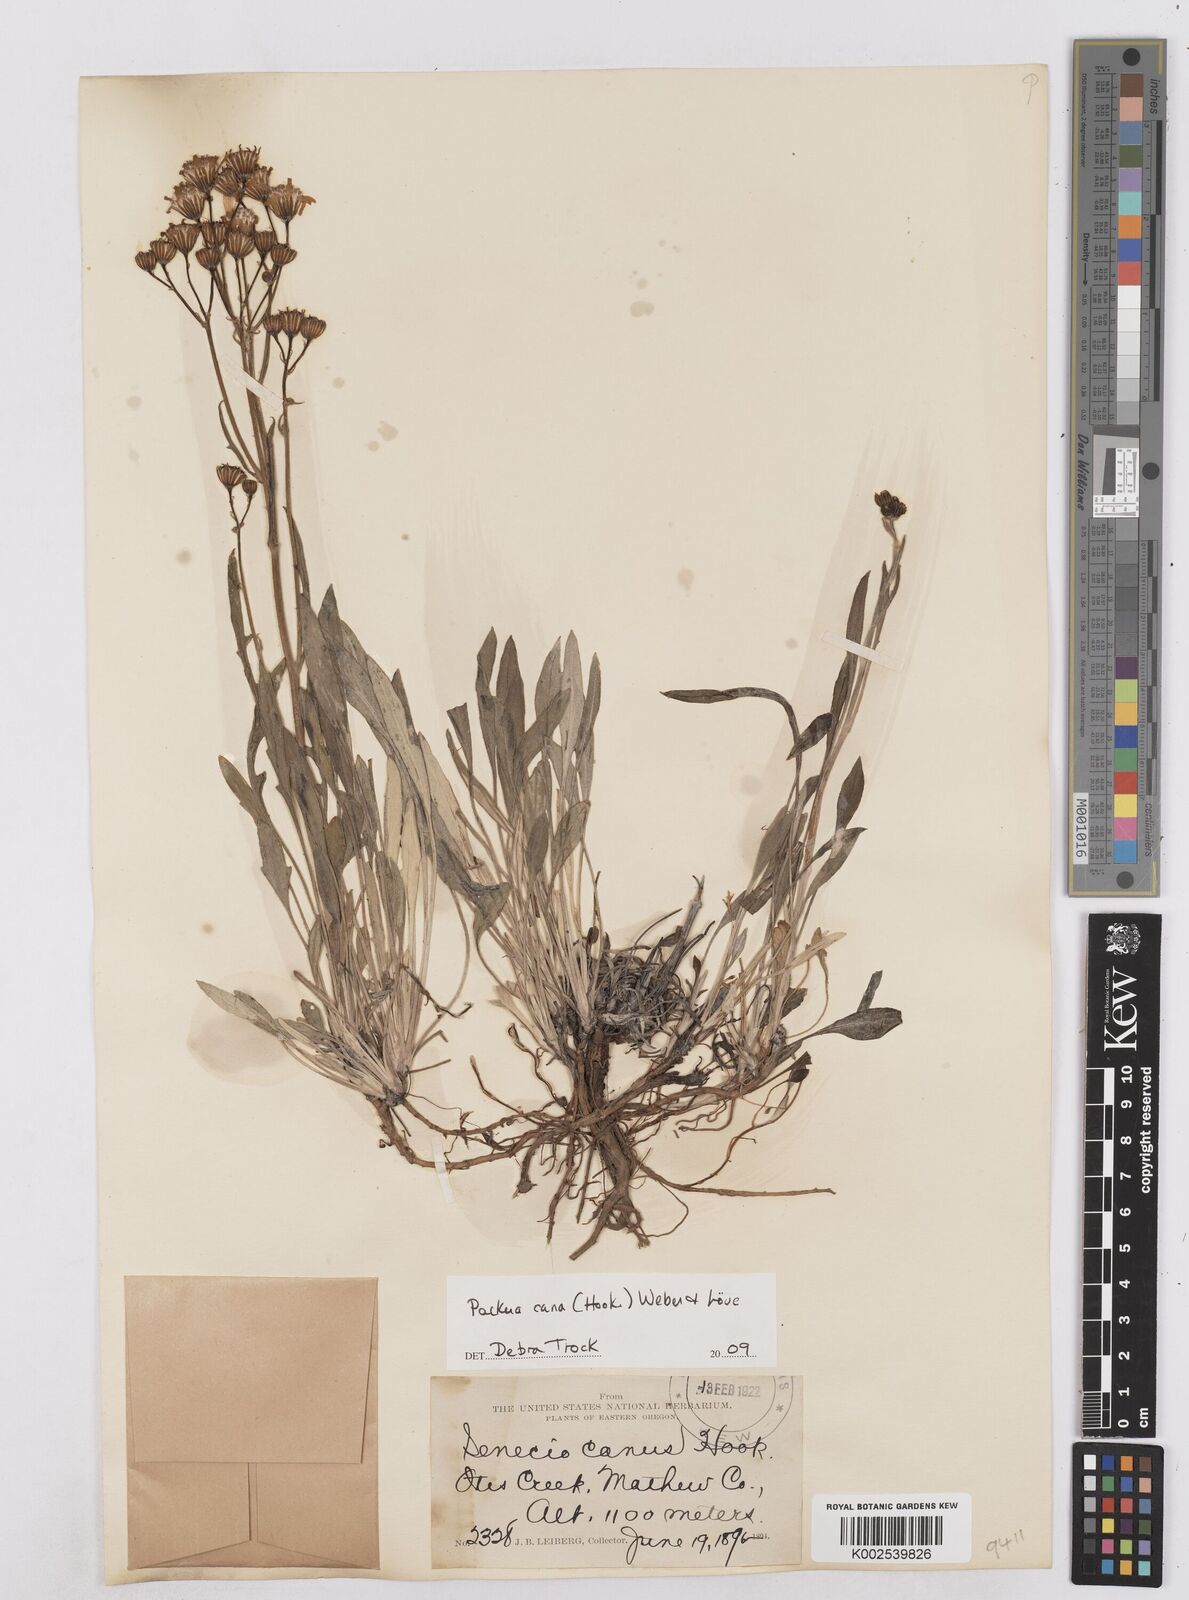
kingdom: Plantae
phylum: Tracheophyta
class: Magnoliopsida
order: Asterales
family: Asteraceae
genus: Packera
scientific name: Packera cana
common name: Woolly groundsel
